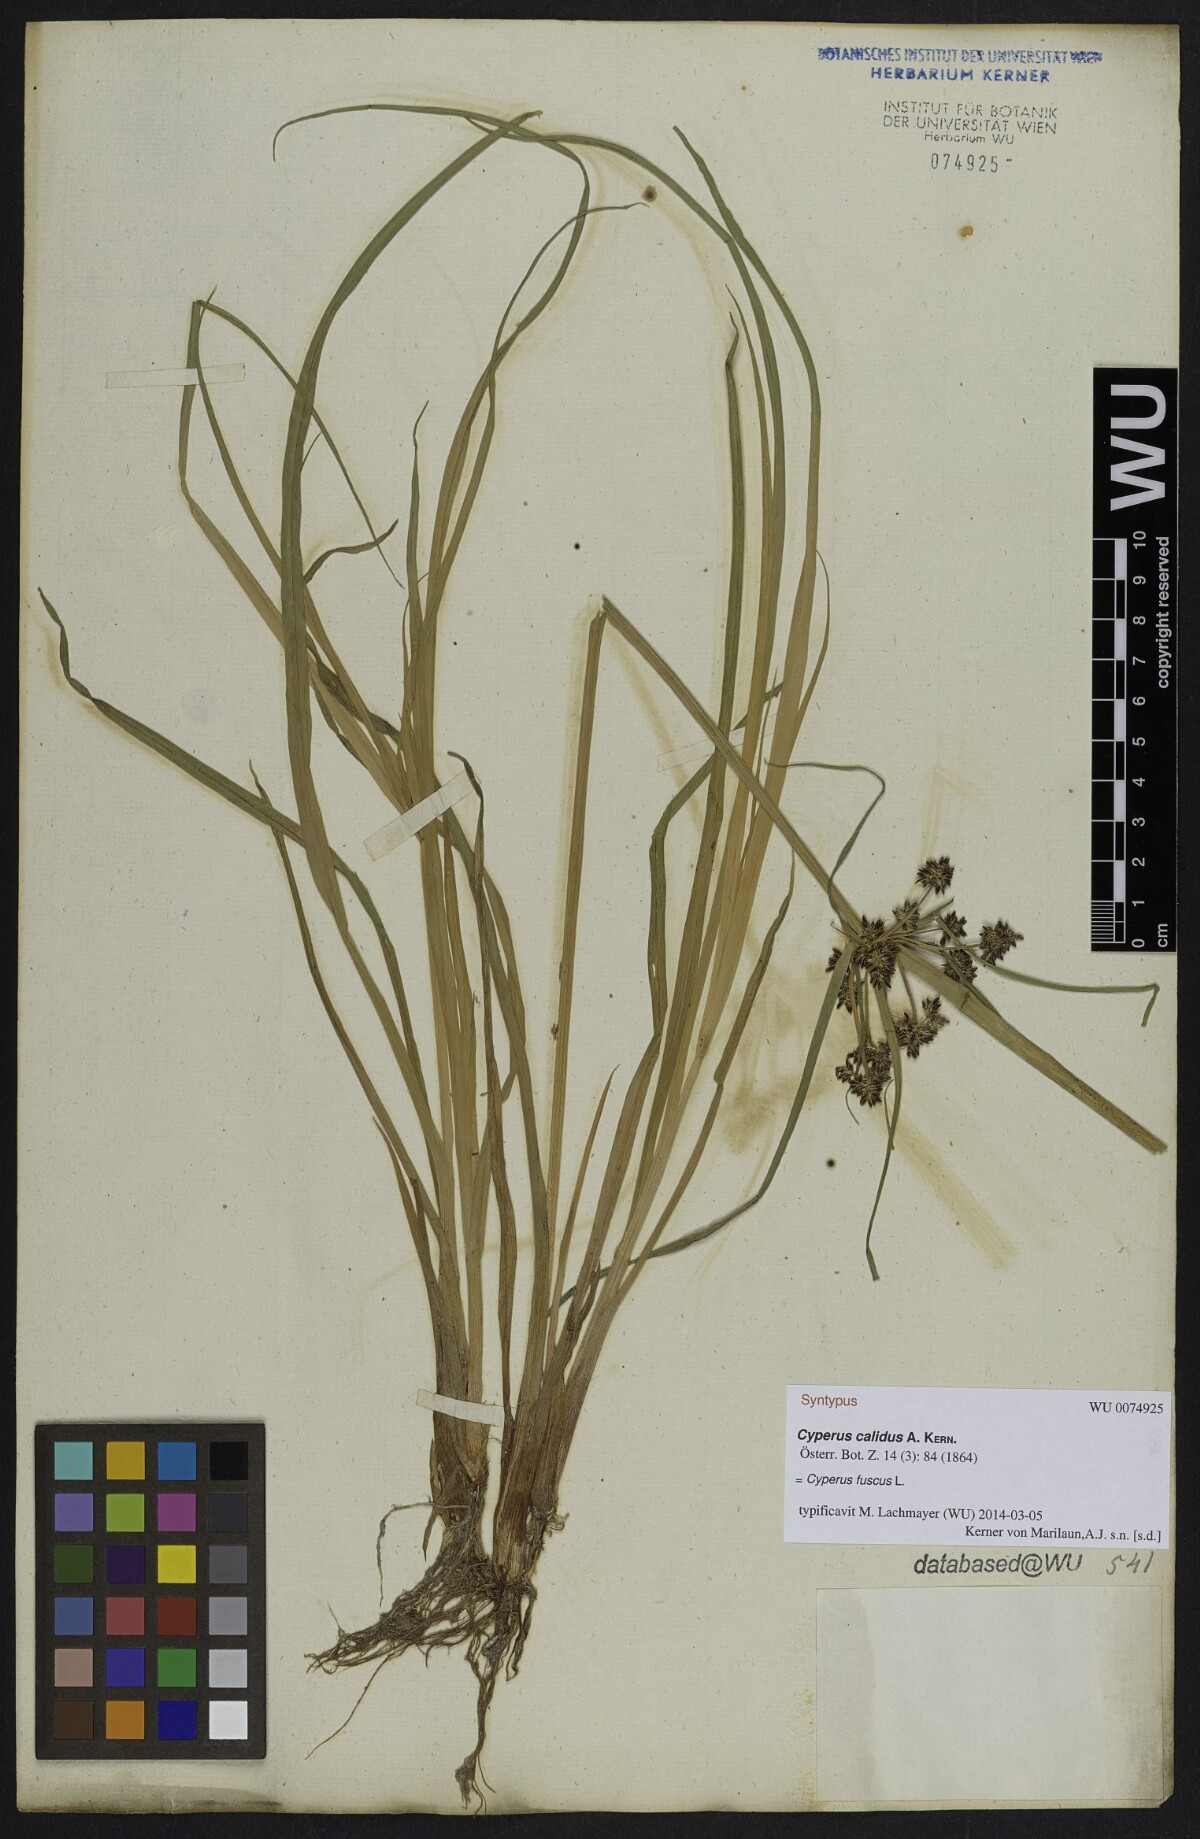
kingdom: Plantae
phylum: Tracheophyta
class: Liliopsida
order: Poales
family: Cyperaceae
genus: Cyperus
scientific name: Cyperus fuscus
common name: Brown galingale
